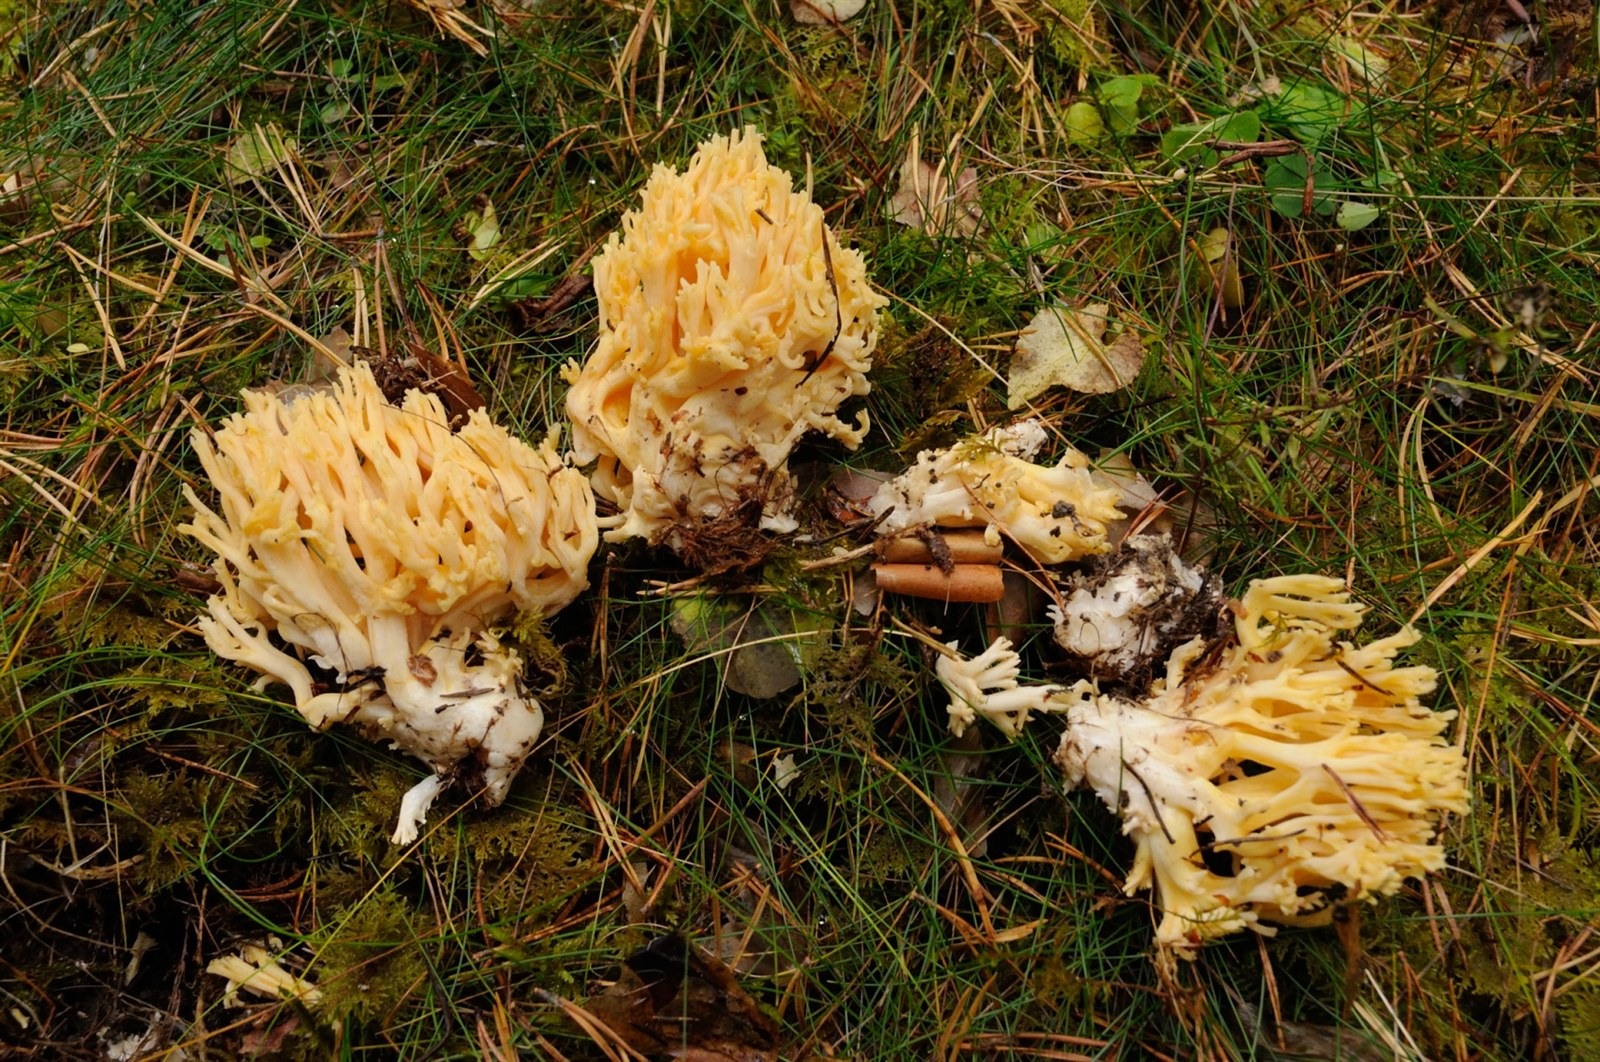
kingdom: Fungi
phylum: Basidiomycota
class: Agaricomycetes
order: Gomphales
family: Gomphaceae
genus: Ramaria
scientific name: Ramaria lutea
